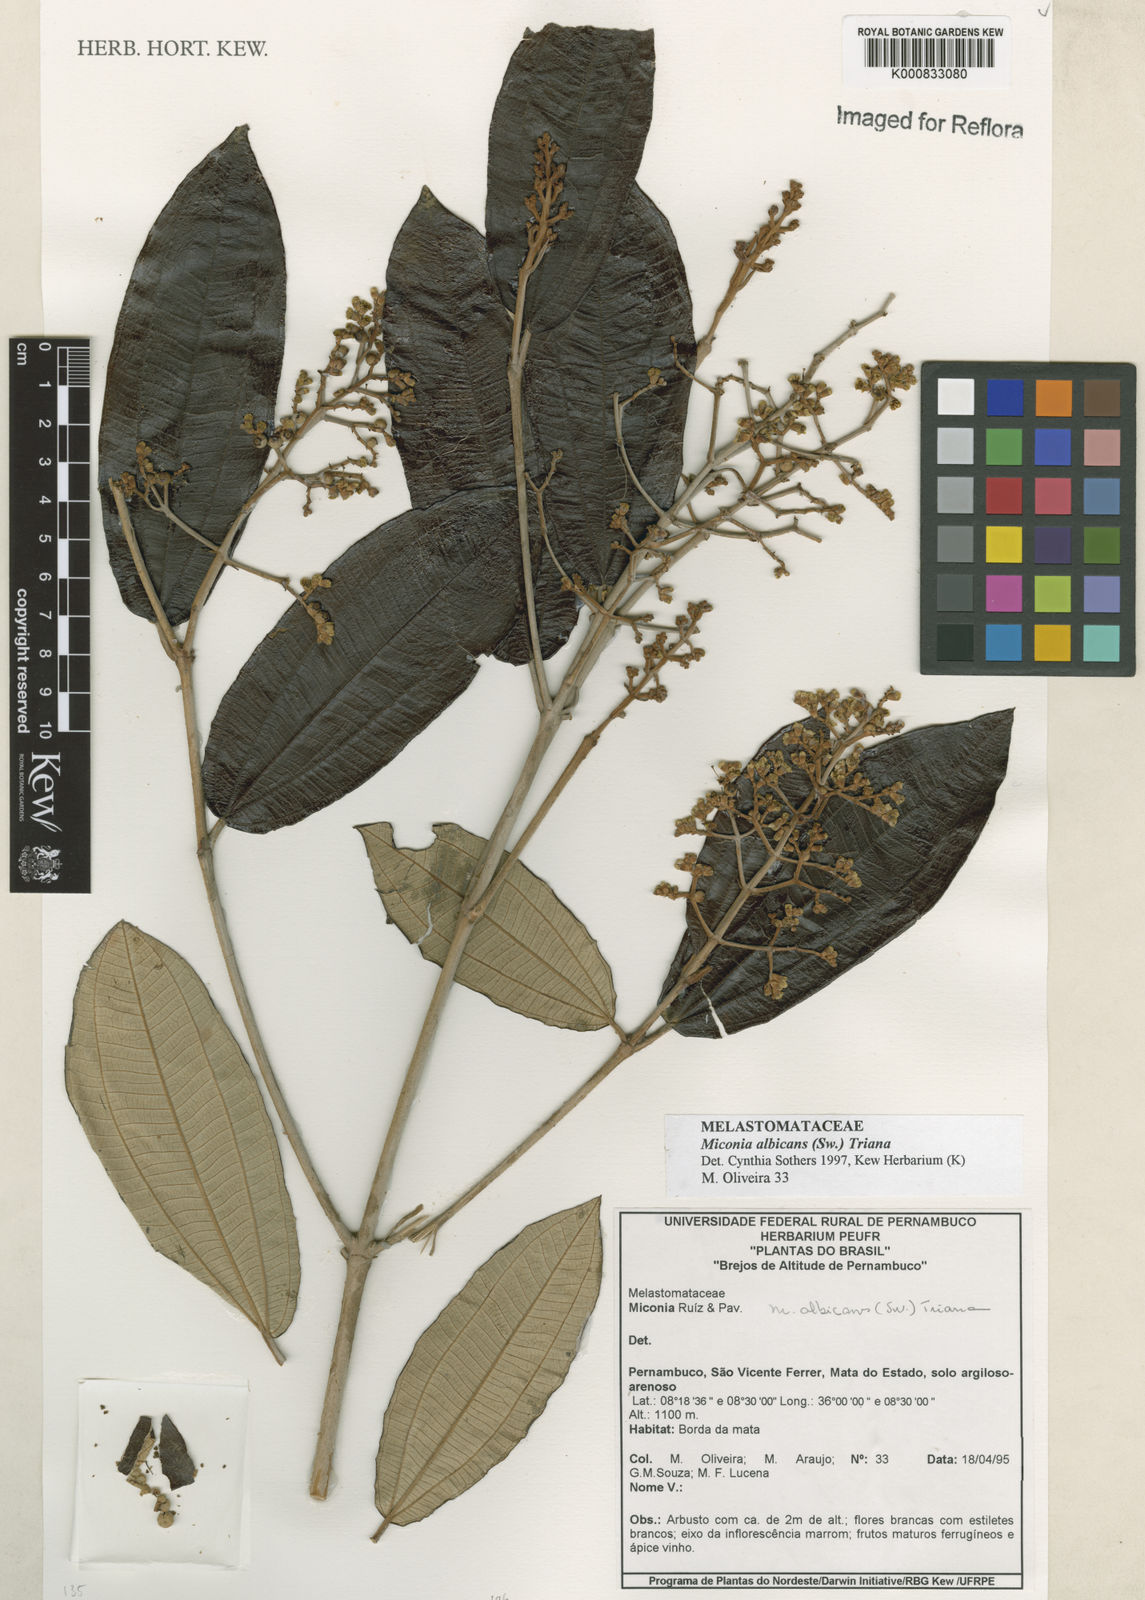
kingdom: Plantae
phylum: Tracheophyta
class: Magnoliopsida
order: Myrtales
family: Melastomataceae
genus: Miconia
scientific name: Miconia albicans
